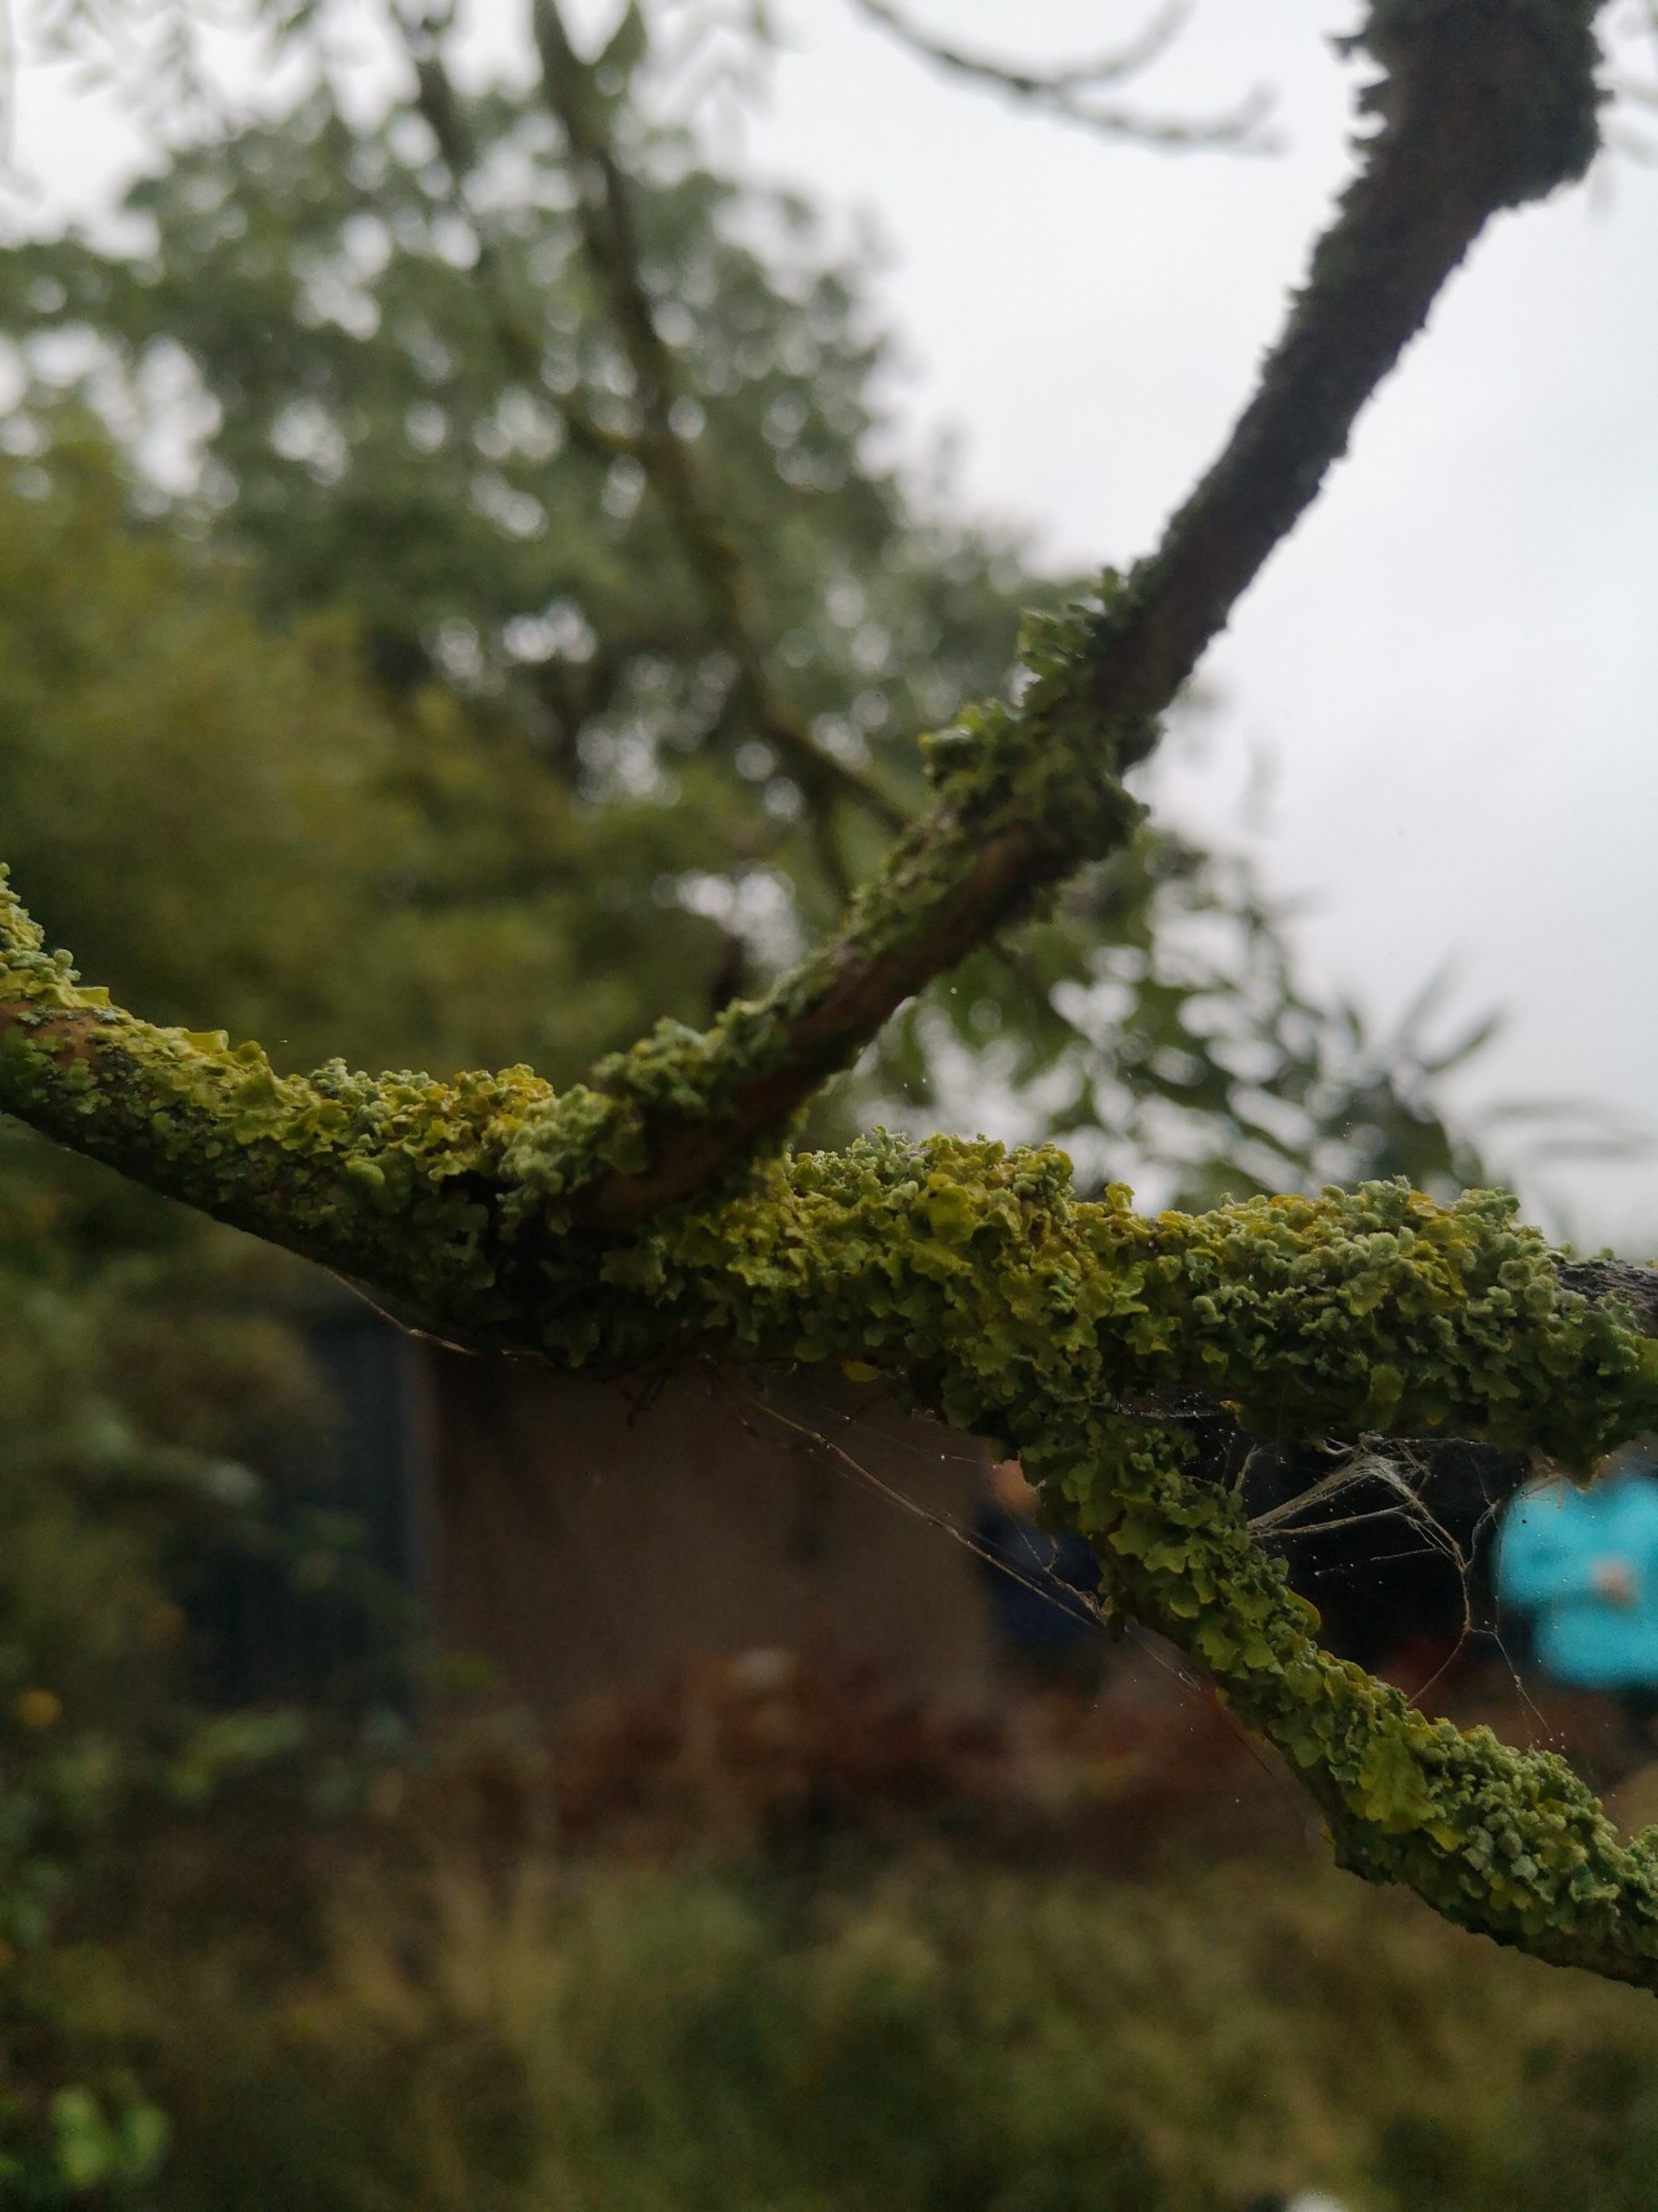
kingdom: Fungi
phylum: Ascomycota
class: Lecanoromycetes
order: Teloschistales
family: Teloschistaceae
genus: Xanthoria
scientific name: Xanthoria parietina
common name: Almindelig væggelav
